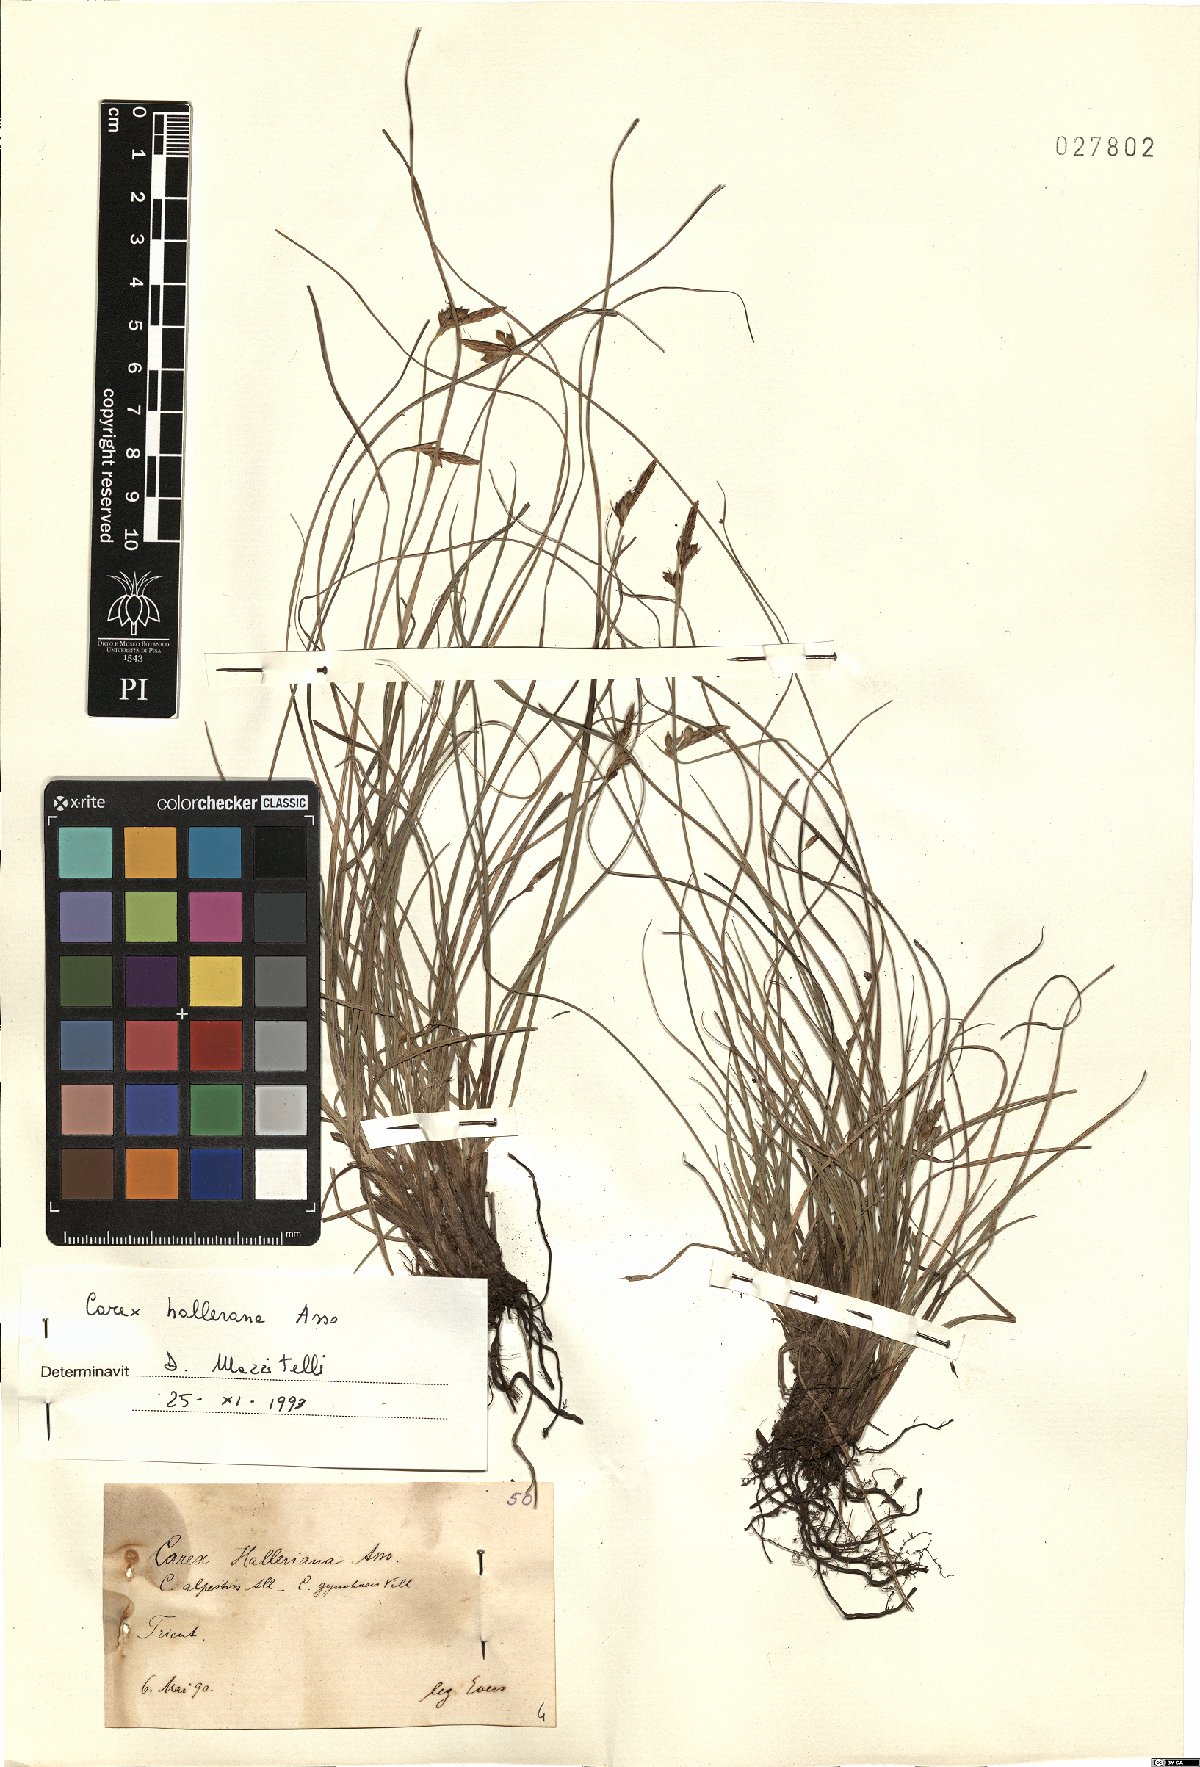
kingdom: Plantae
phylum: Tracheophyta
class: Liliopsida
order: Poales
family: Cyperaceae
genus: Carex
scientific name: Carex halleriana
